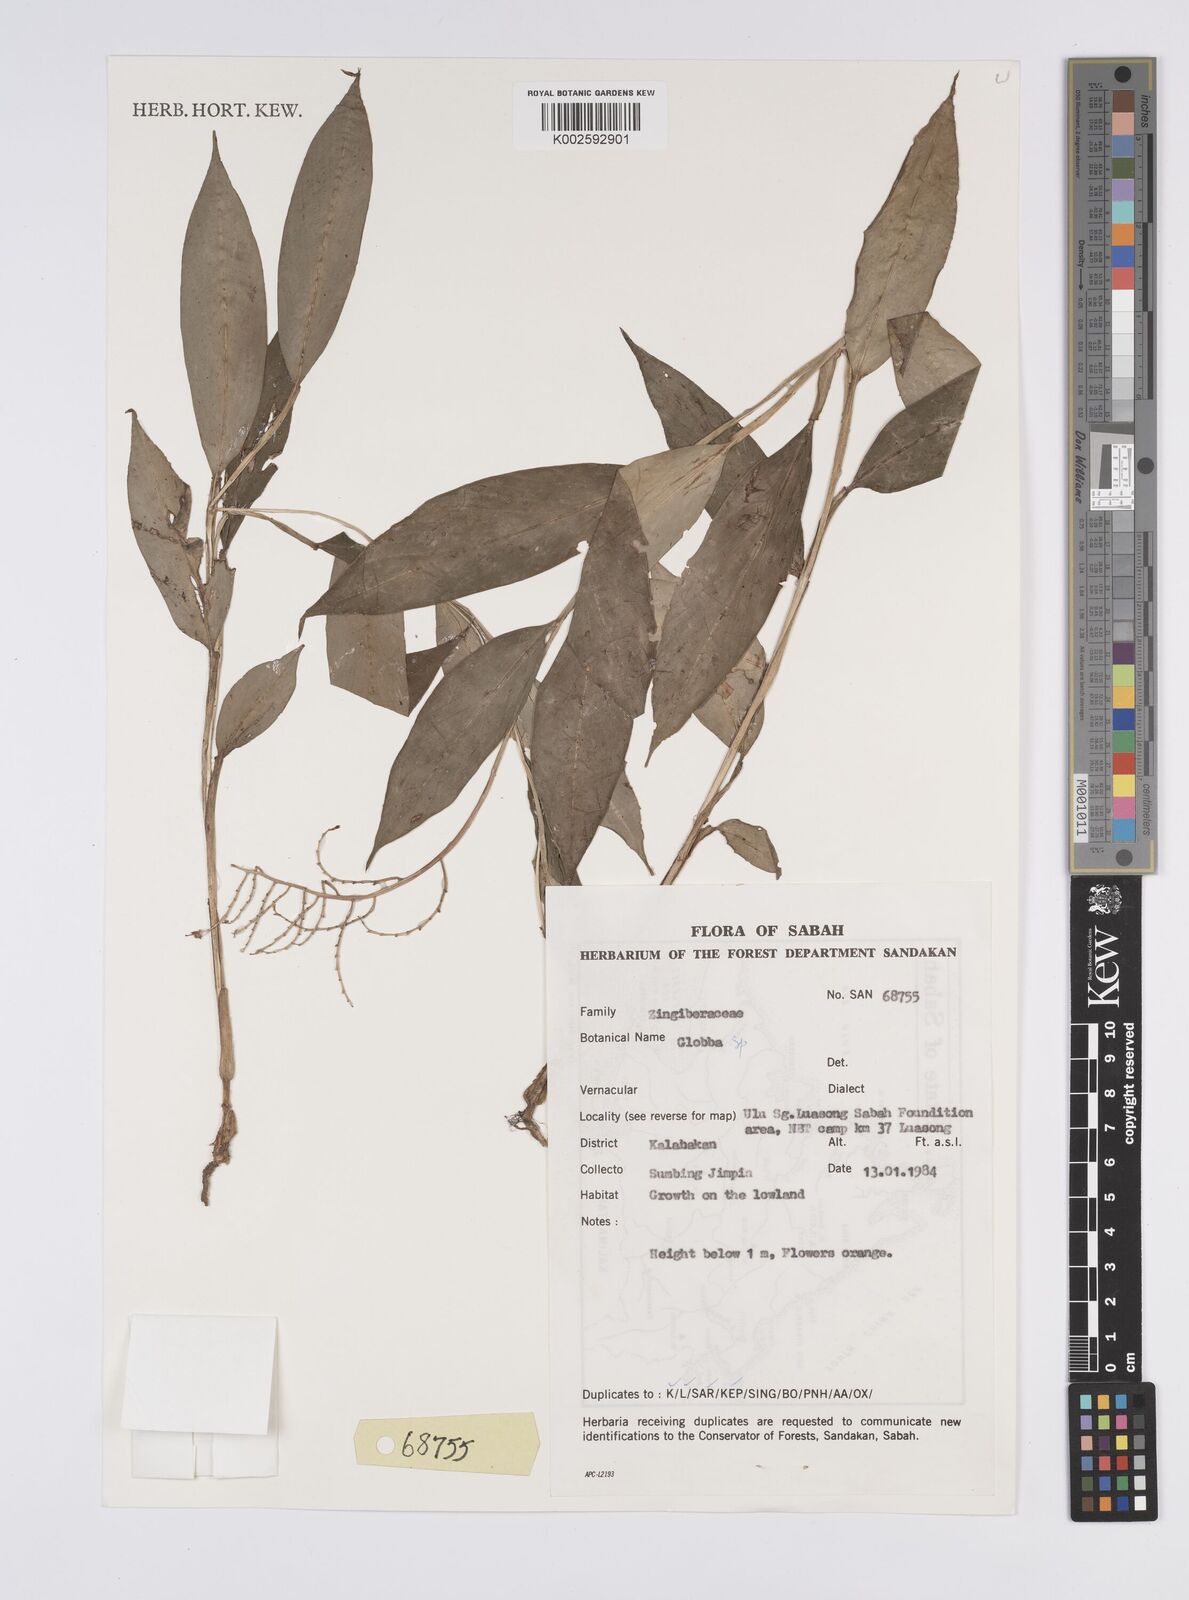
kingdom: Plantae
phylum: Tracheophyta
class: Liliopsida
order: Zingiberales
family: Zingiberaceae
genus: Globba
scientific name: Globba francisci
